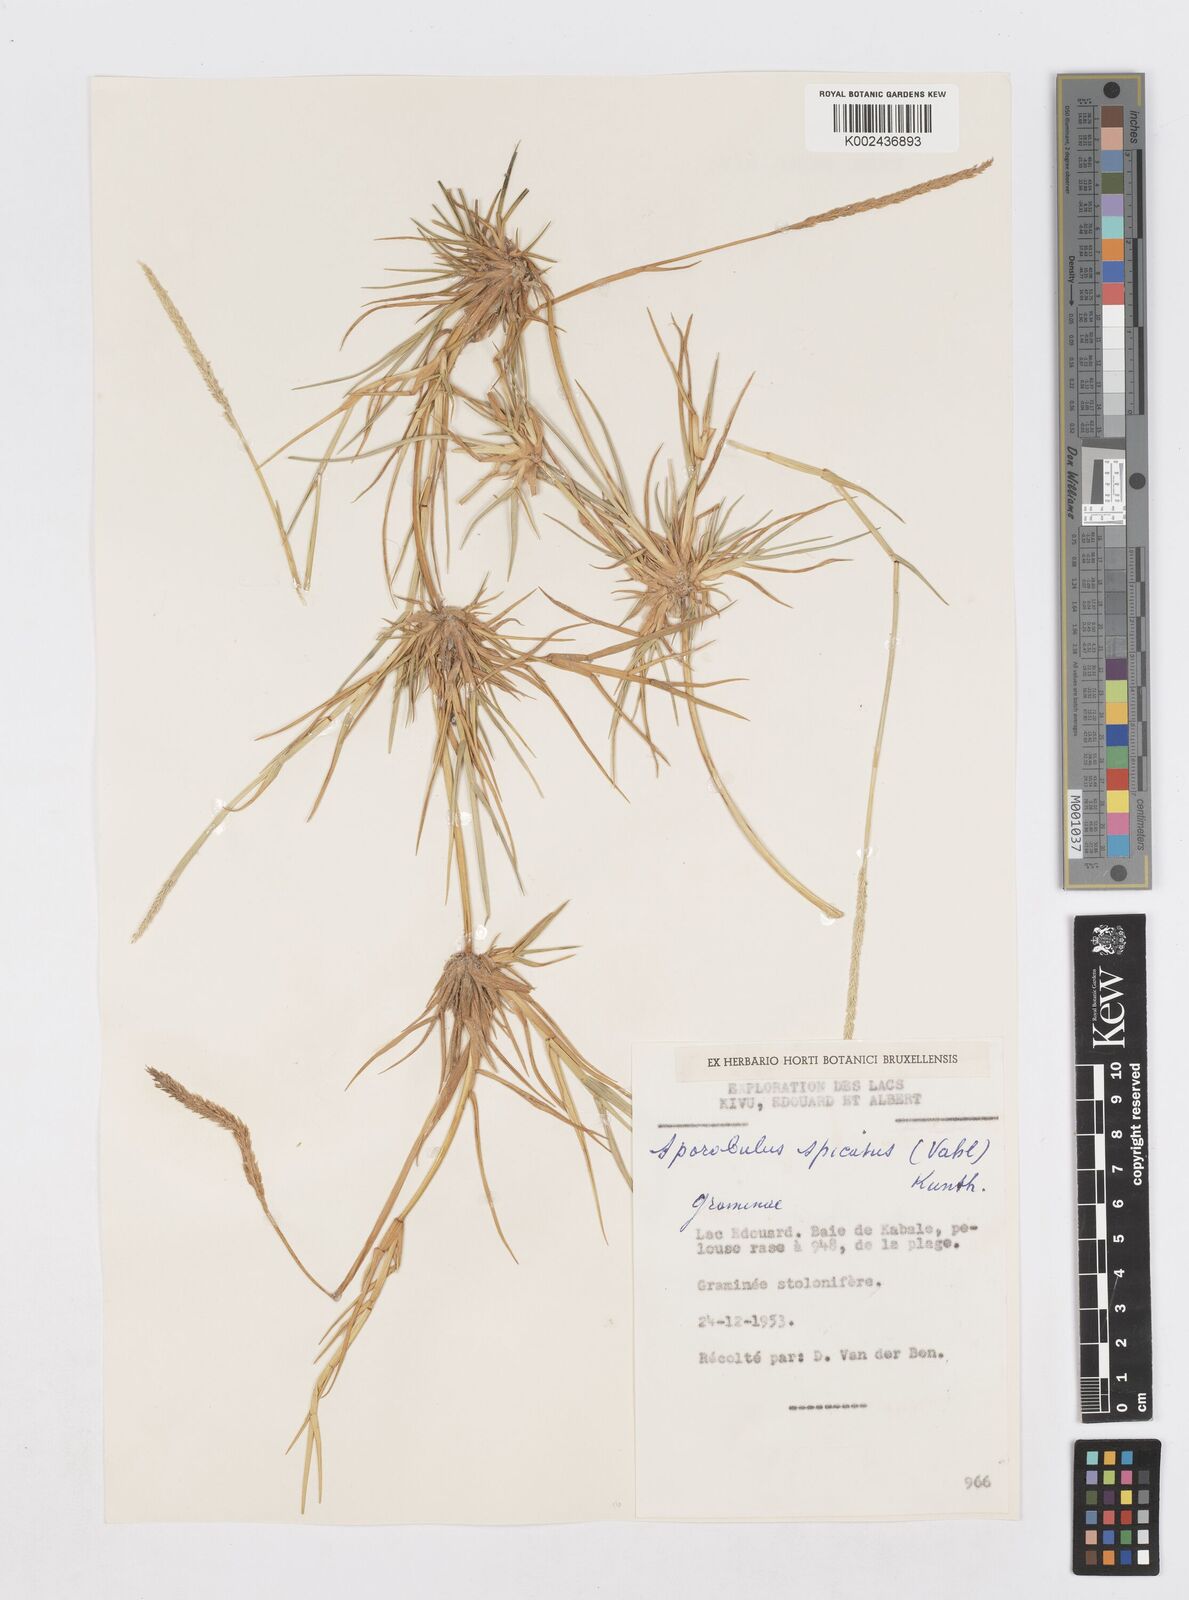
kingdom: Plantae
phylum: Tracheophyta
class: Liliopsida
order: Poales
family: Poaceae
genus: Sporobolus
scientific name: Sporobolus spicatus
